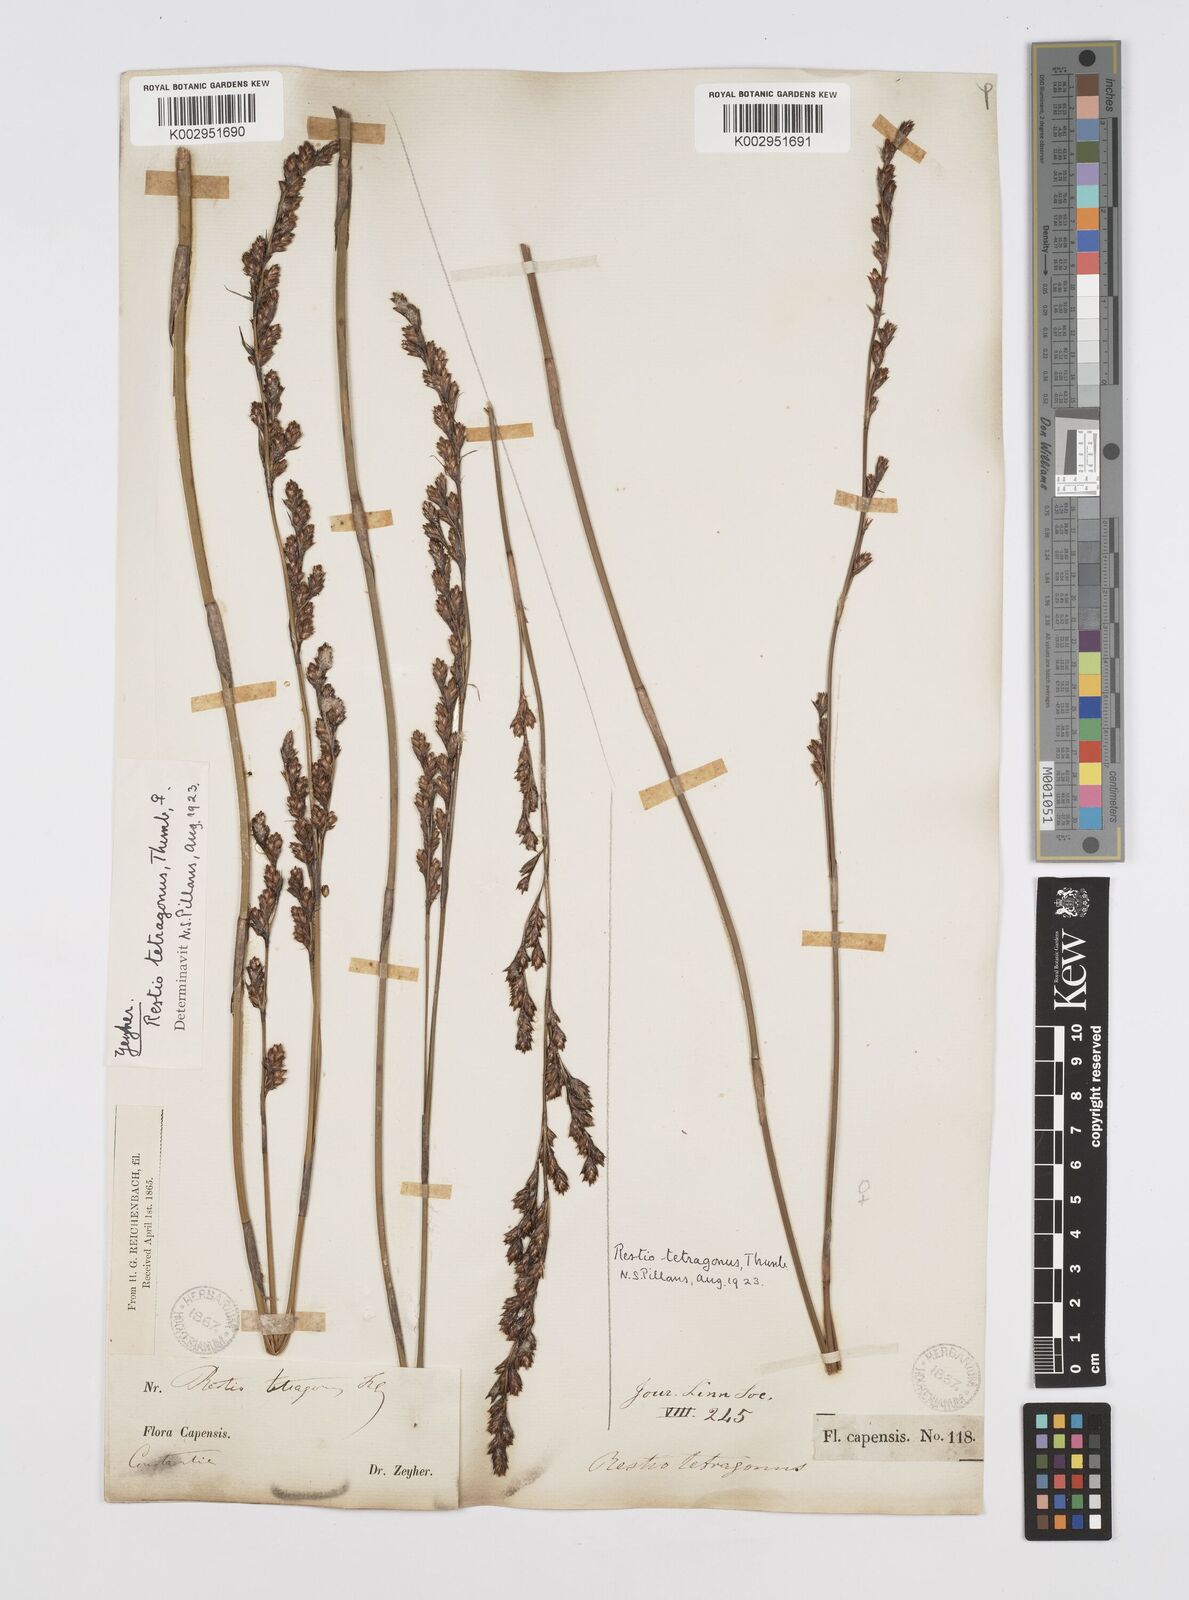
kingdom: Plantae
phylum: Tracheophyta
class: Liliopsida
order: Poales
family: Restionaceae
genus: Restio
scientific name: Restio tetragonus
